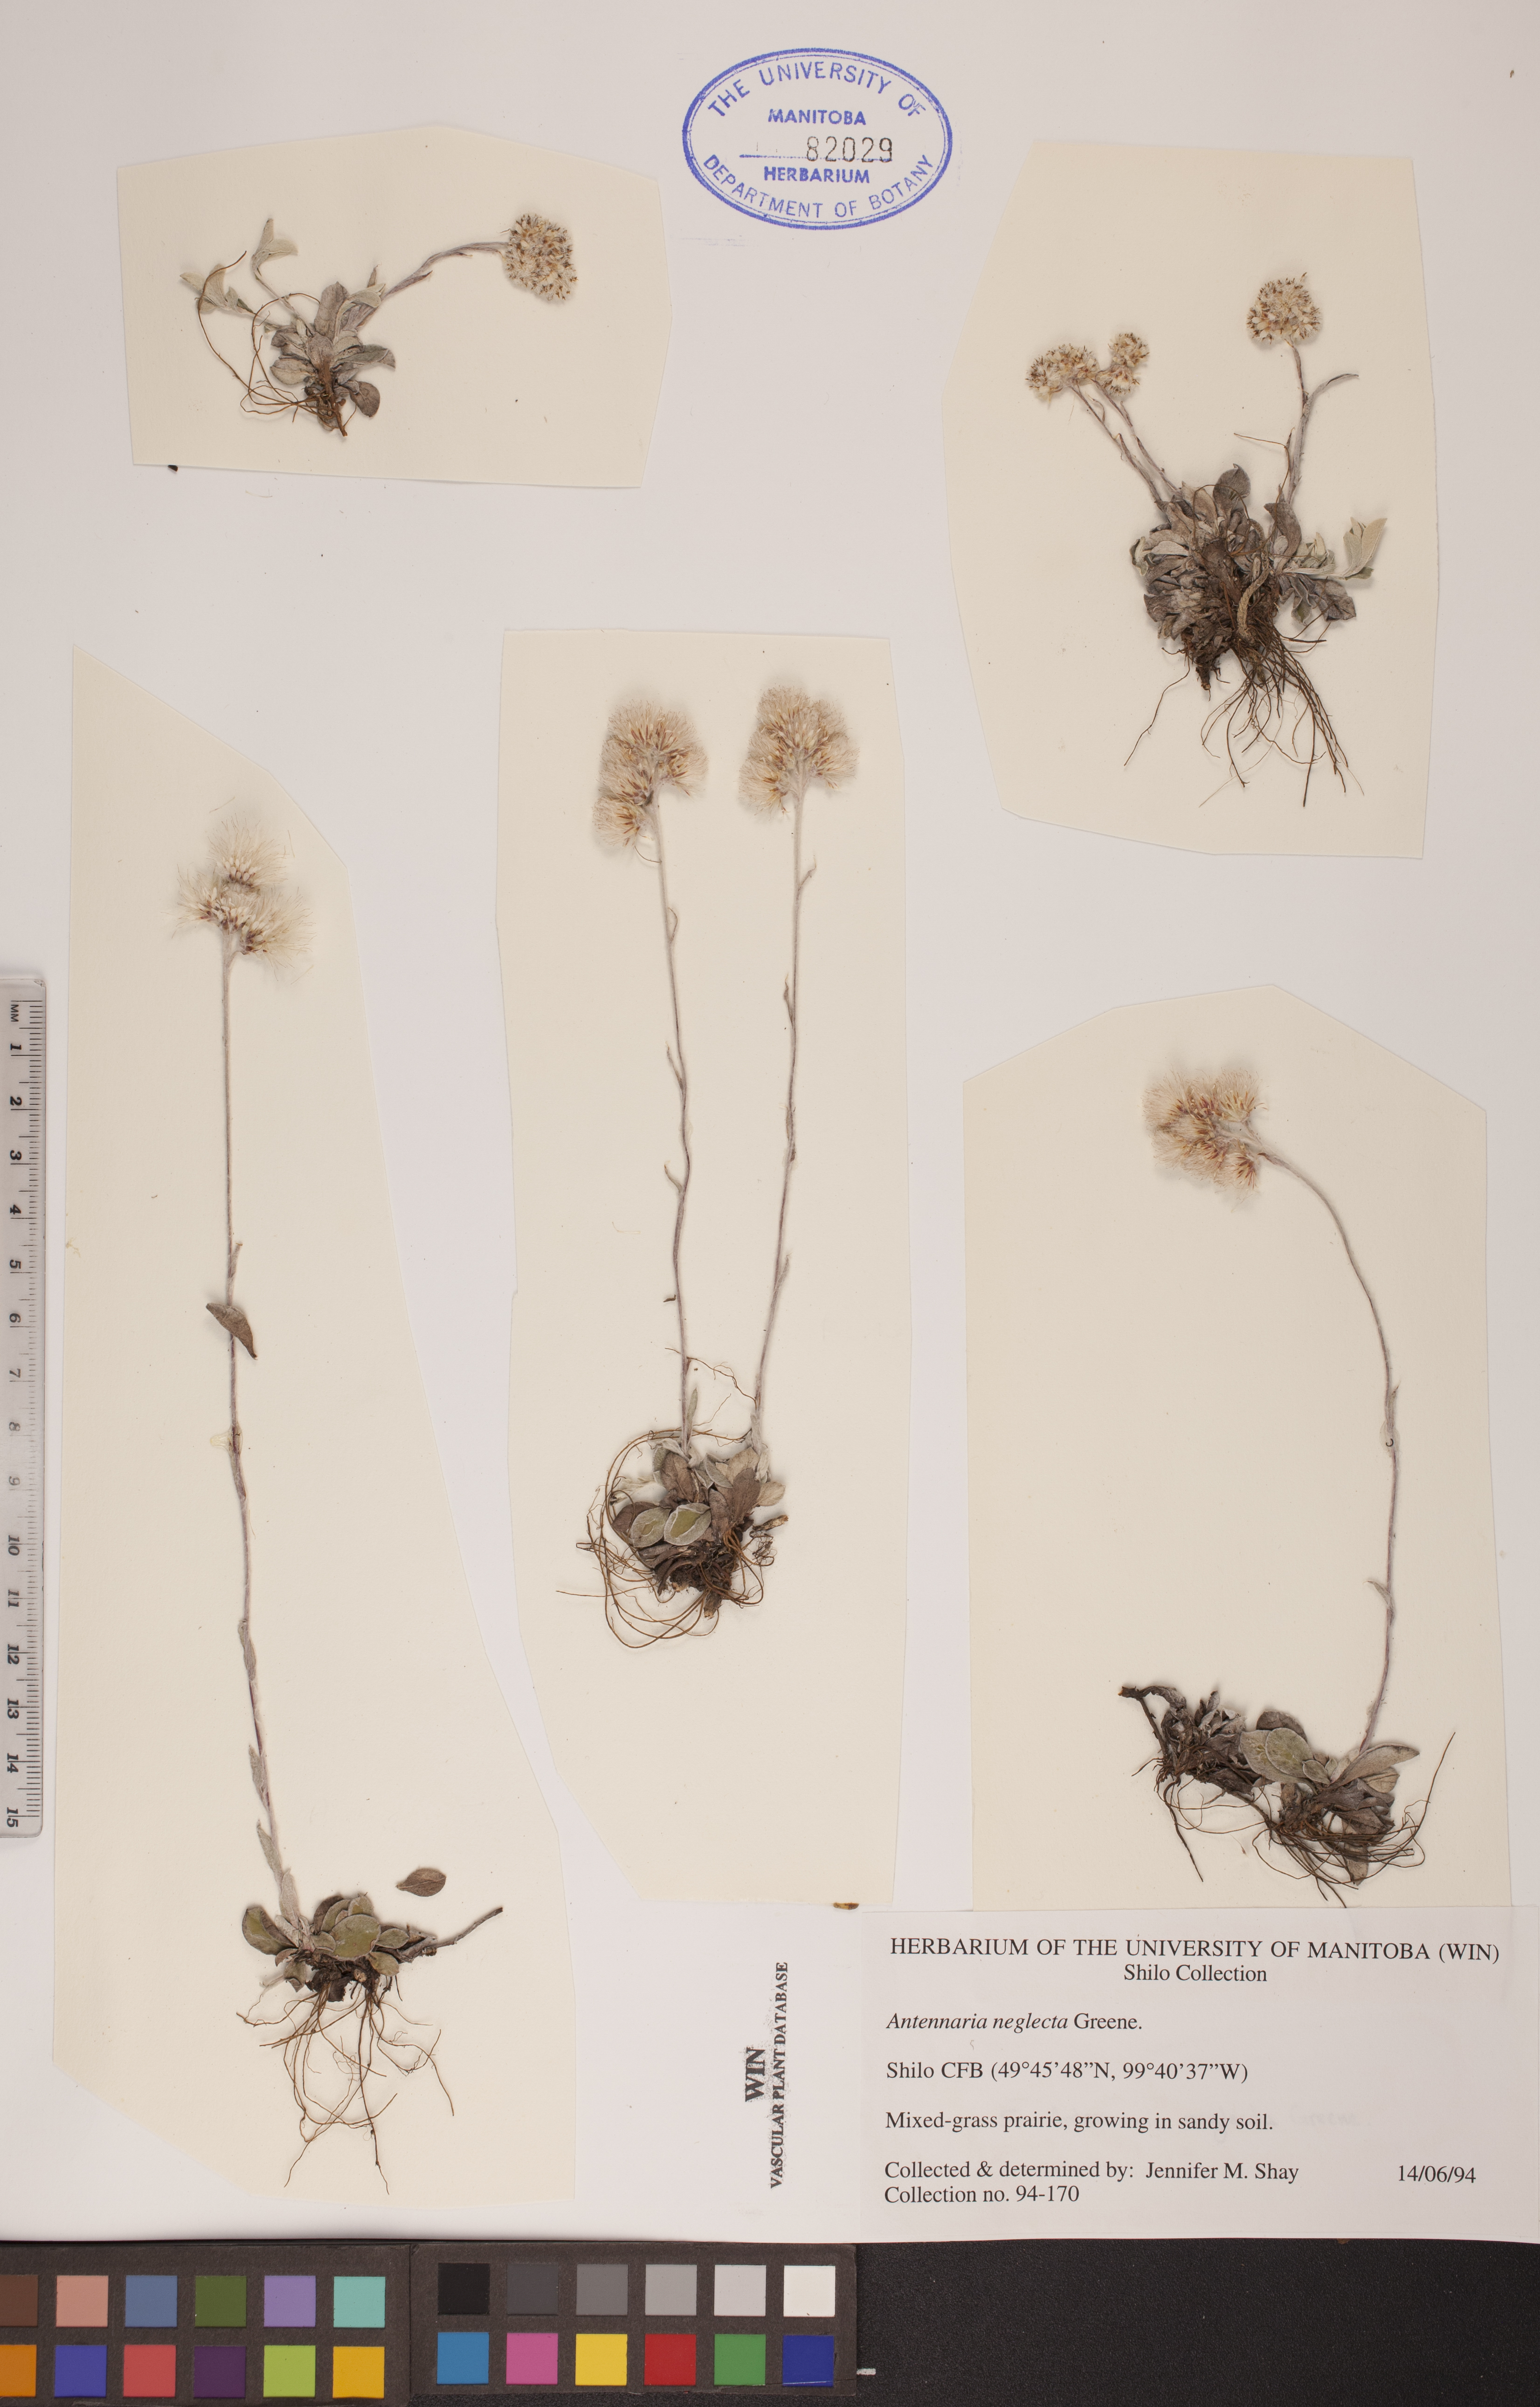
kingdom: Plantae
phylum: Tracheophyta
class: Magnoliopsida
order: Asterales
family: Asteraceae
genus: Antennaria
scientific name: Antennaria neglecta
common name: Field pussytoes
